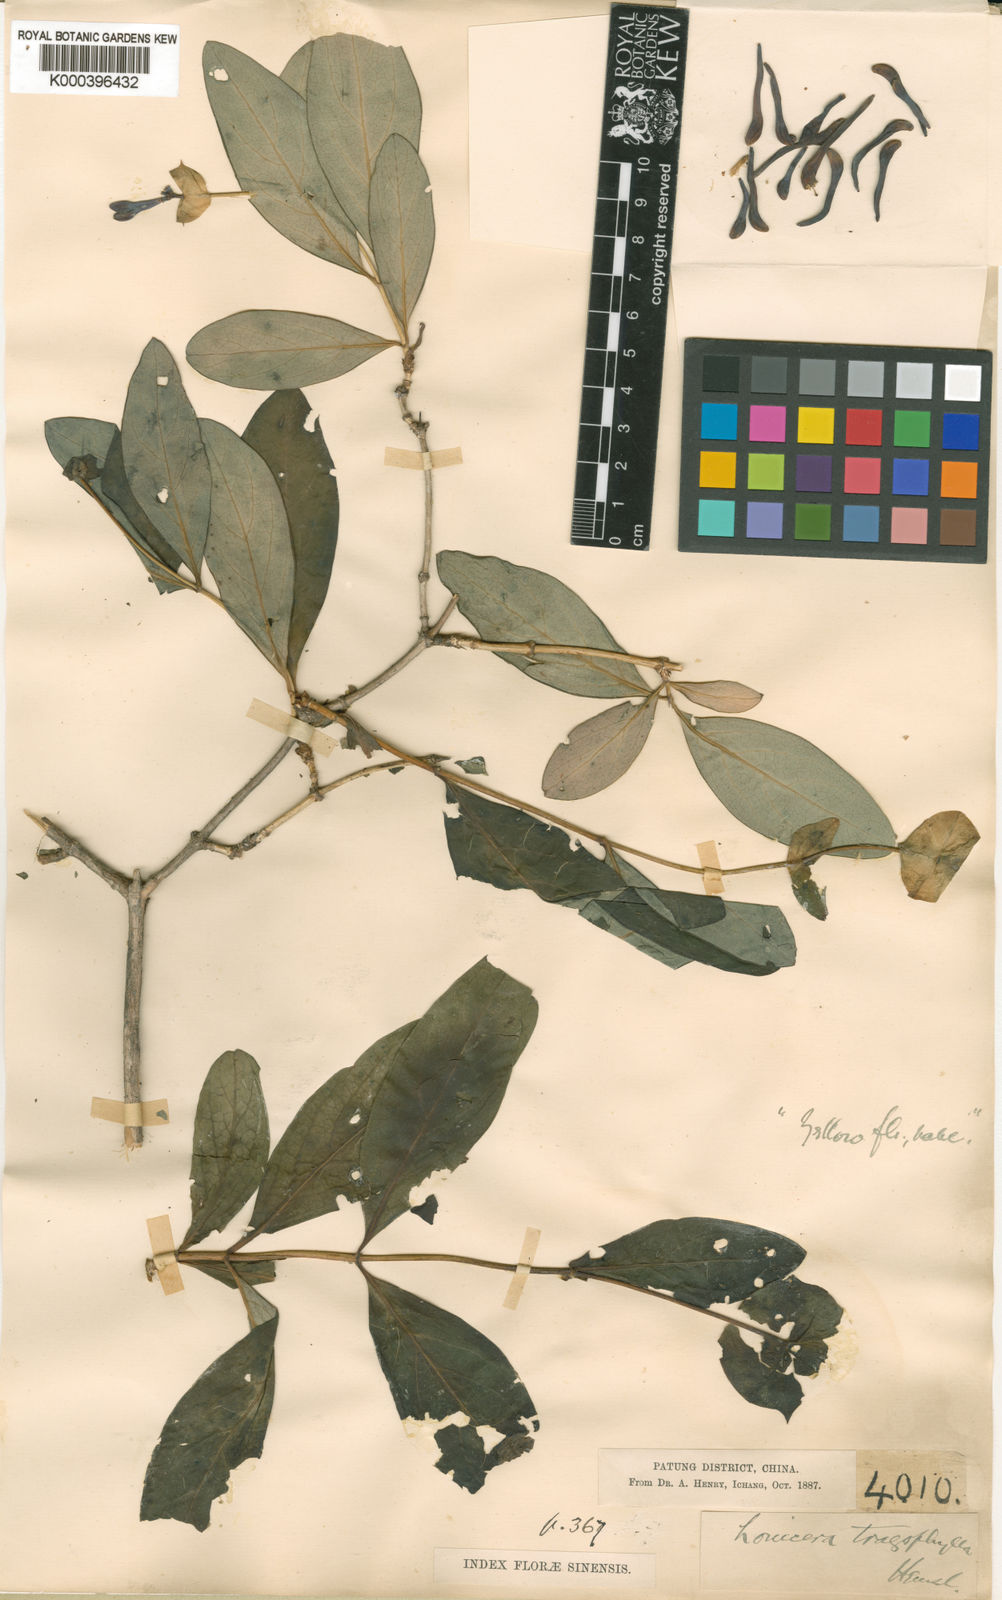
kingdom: Plantae
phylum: Tracheophyta
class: Magnoliopsida
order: Dipsacales
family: Caprifoliaceae
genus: Lonicera
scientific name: Lonicera tragophylla
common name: Yellow honeysuckle
